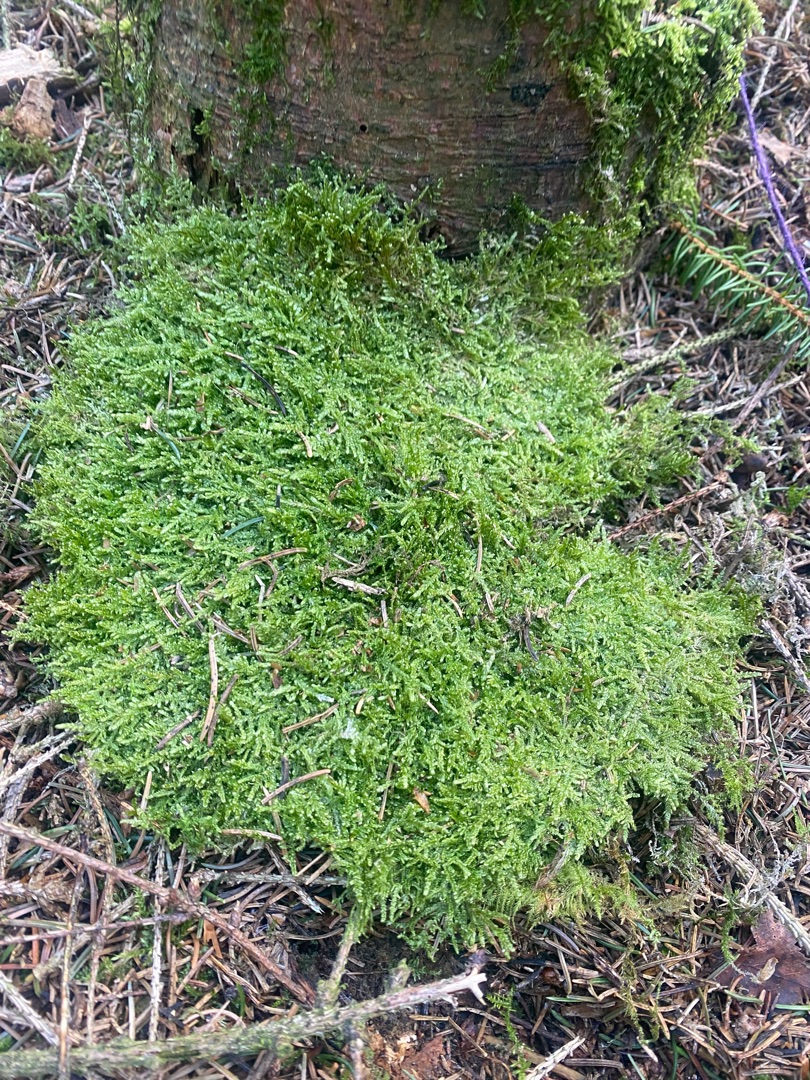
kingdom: Plantae
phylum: Bryophyta
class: Bryopsida
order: Hypnales
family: Hypnaceae
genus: Hypnum
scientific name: Hypnum jutlandicum
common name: Hede-cypresmos
